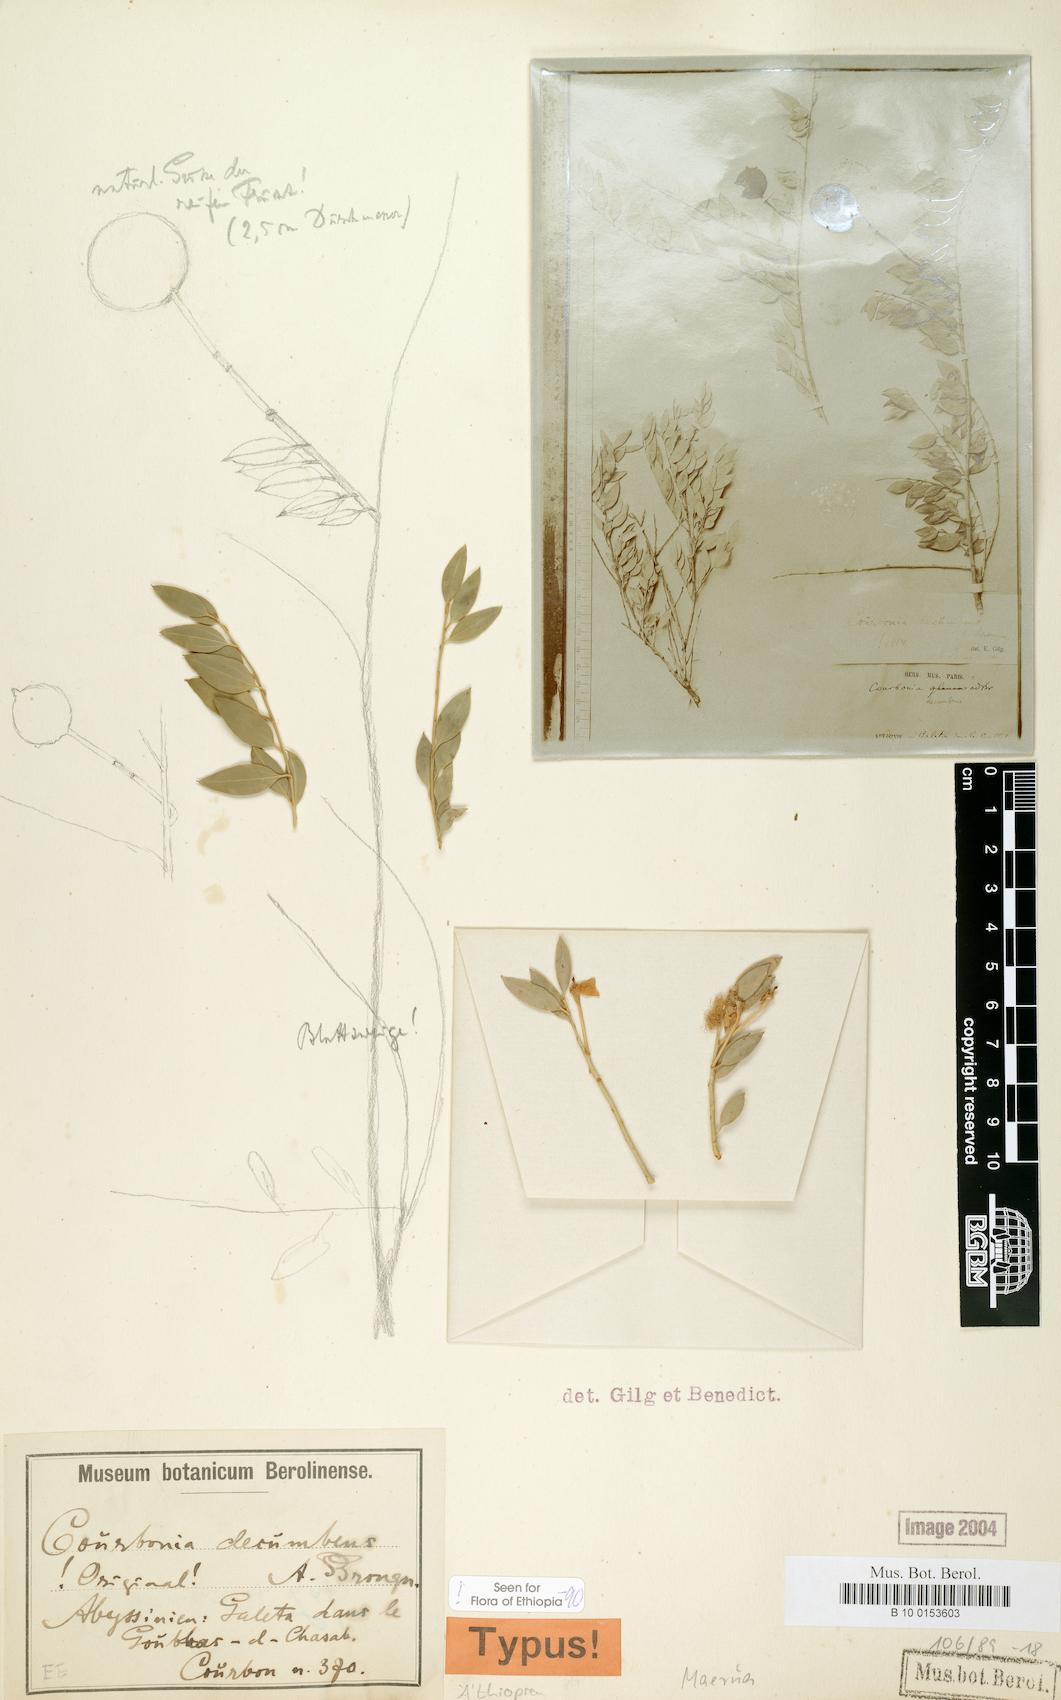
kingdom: Plantae
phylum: Tracheophyta
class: Magnoliopsida
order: Brassicales
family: Capparaceae
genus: Maerua
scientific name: Maerua decumbens
